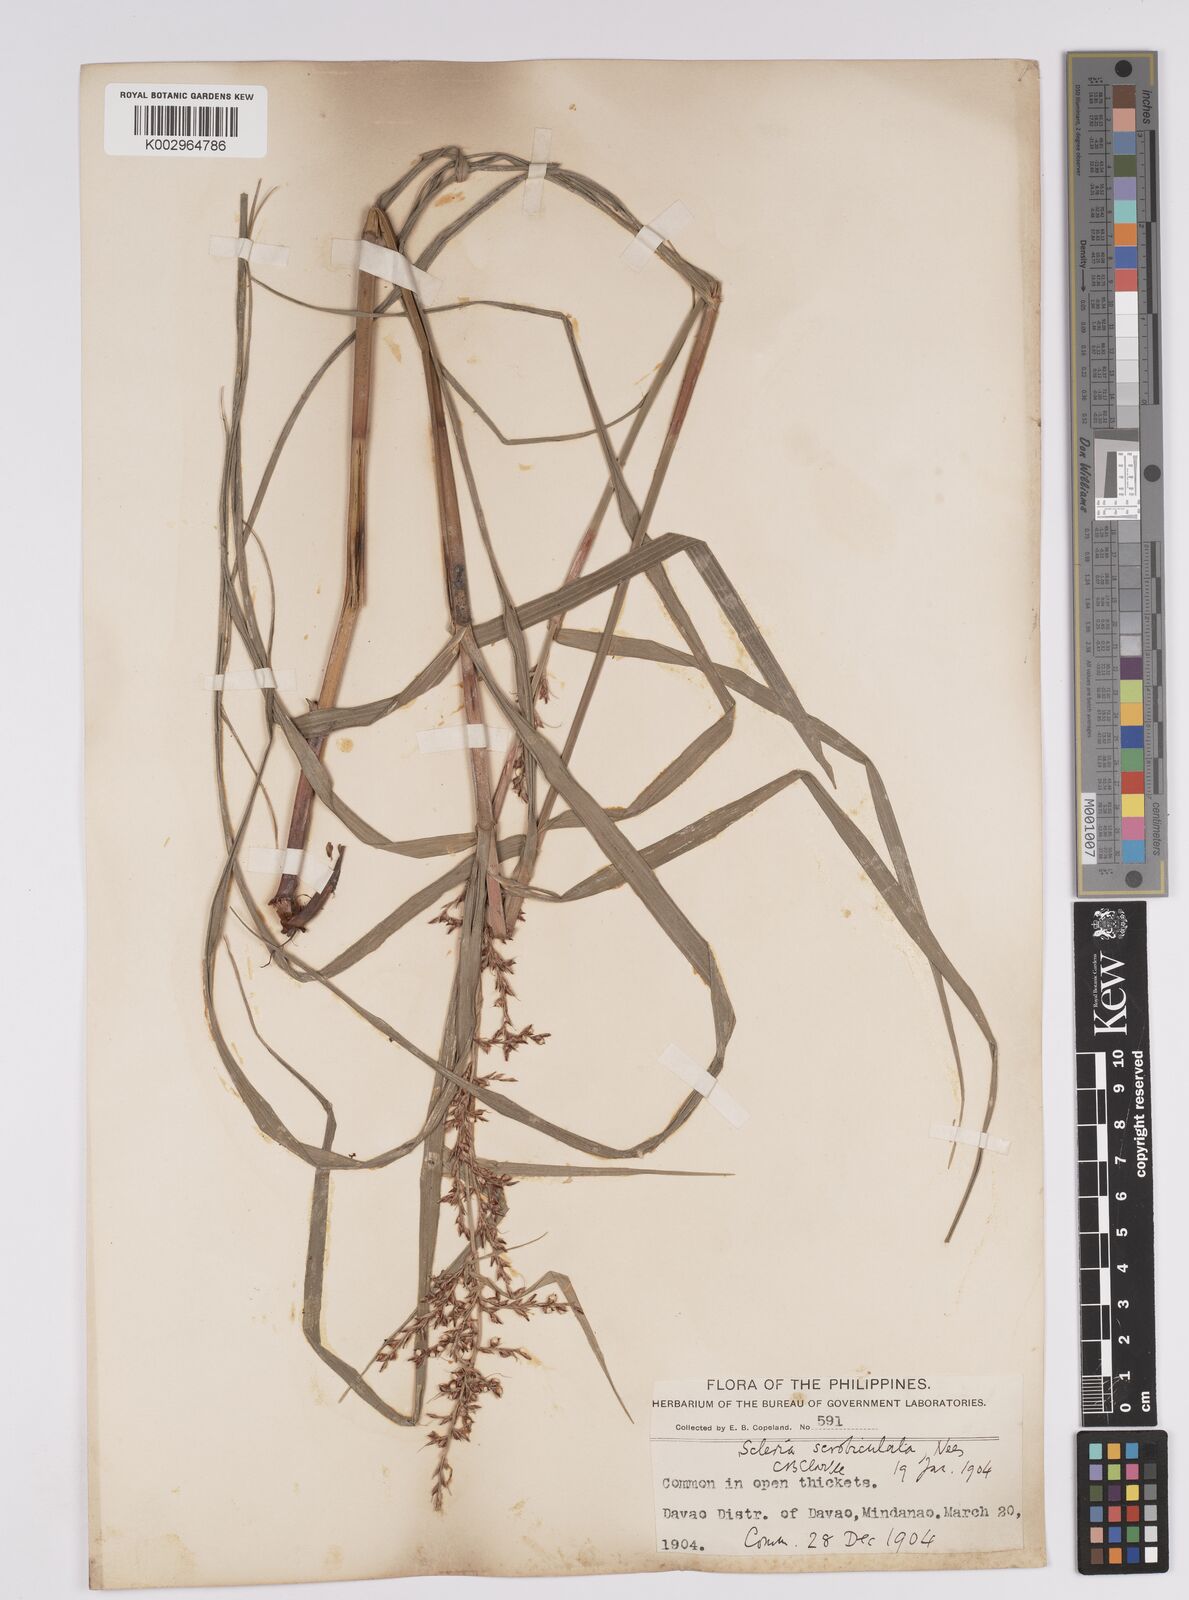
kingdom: Plantae
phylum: Tracheophyta
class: Liliopsida
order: Poales
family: Cyperaceae
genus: Scleria
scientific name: Scleria scrobiculata
